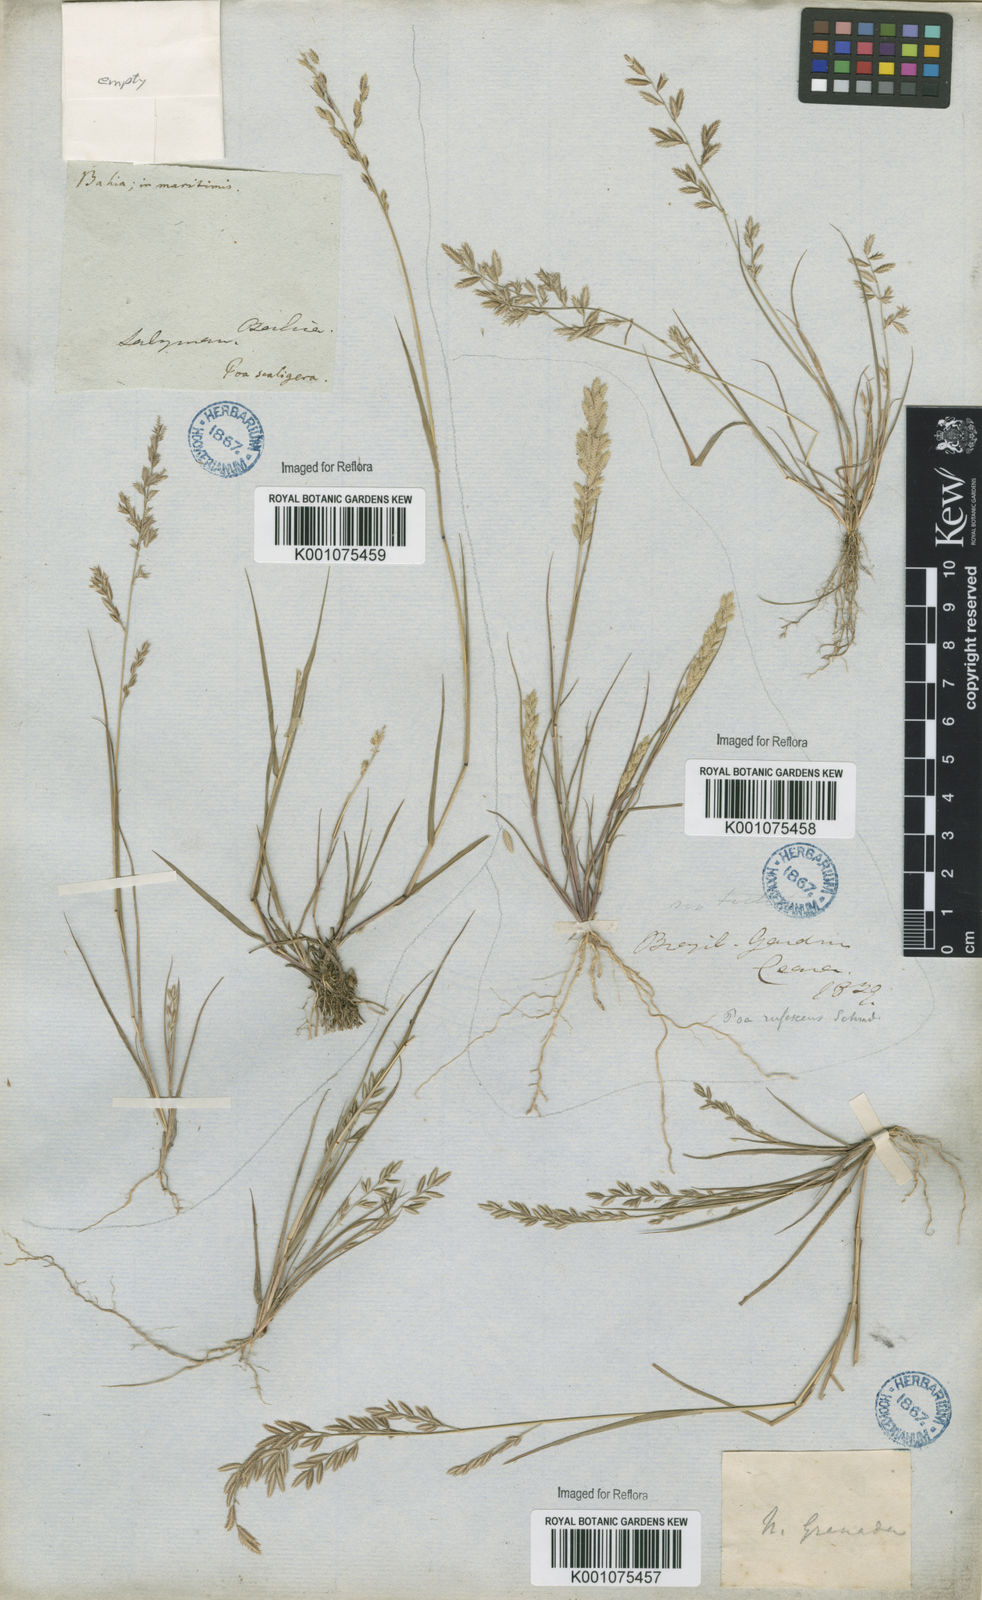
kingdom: Plantae
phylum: Tracheophyta
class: Liliopsida
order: Poales
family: Poaceae
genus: Eragrostis
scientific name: Eragrostis maypurensis
